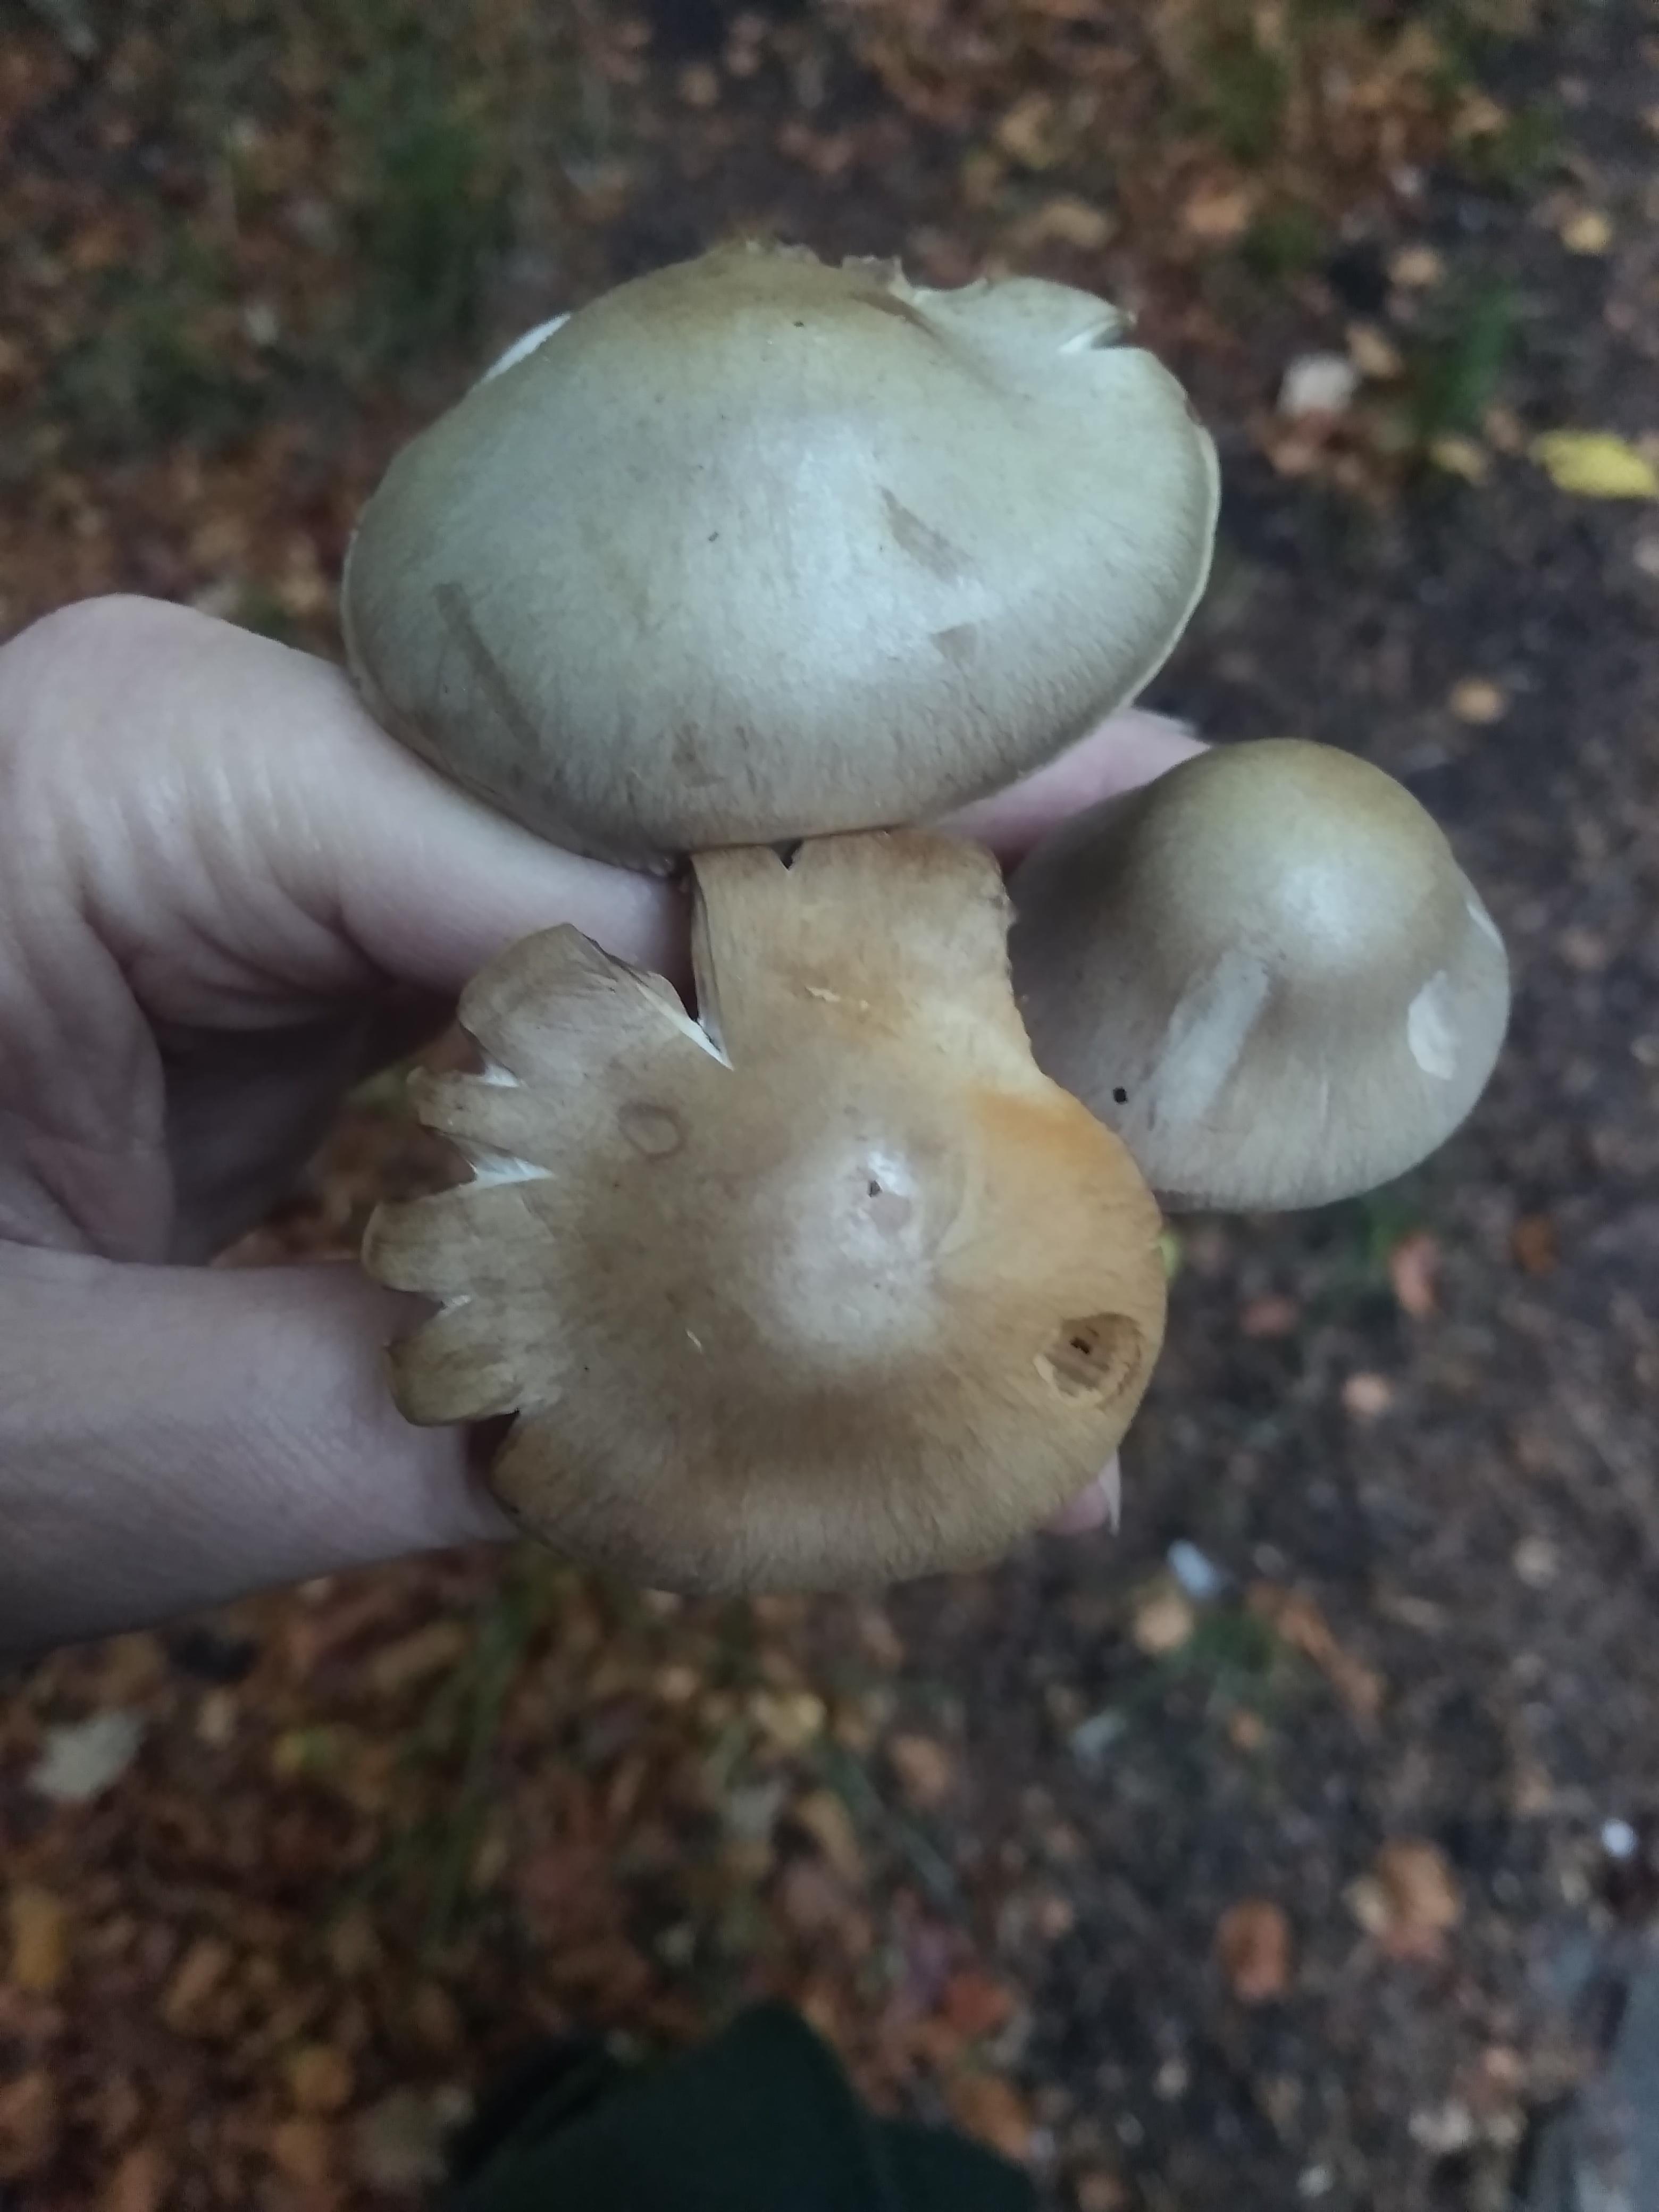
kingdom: Fungi
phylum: Basidiomycota
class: Agaricomycetes
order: Agaricales
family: Cortinariaceae
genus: Cortinarius
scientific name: Cortinarius
